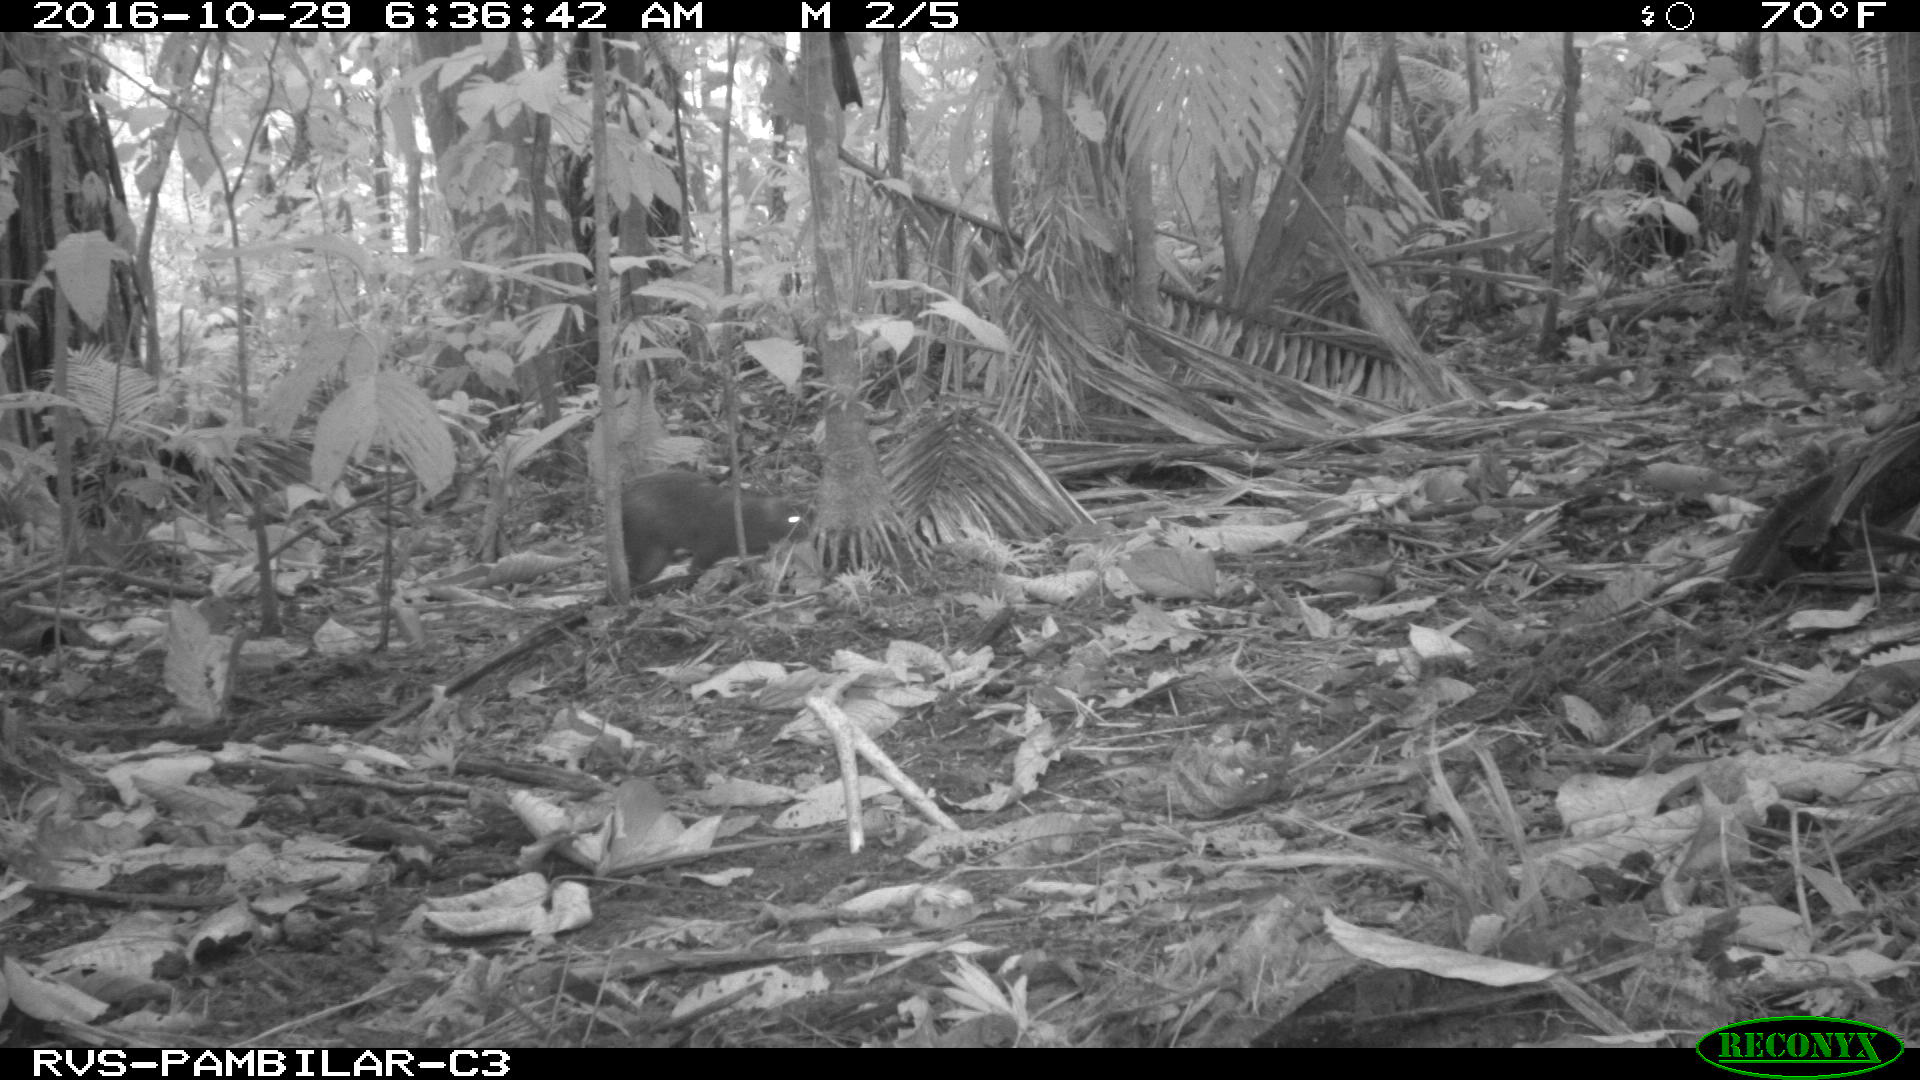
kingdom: Animalia
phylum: Chordata
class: Mammalia
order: Rodentia
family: Dasyproctidae
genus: Dasyprocta
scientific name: Dasyprocta punctata
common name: Central american agouti
